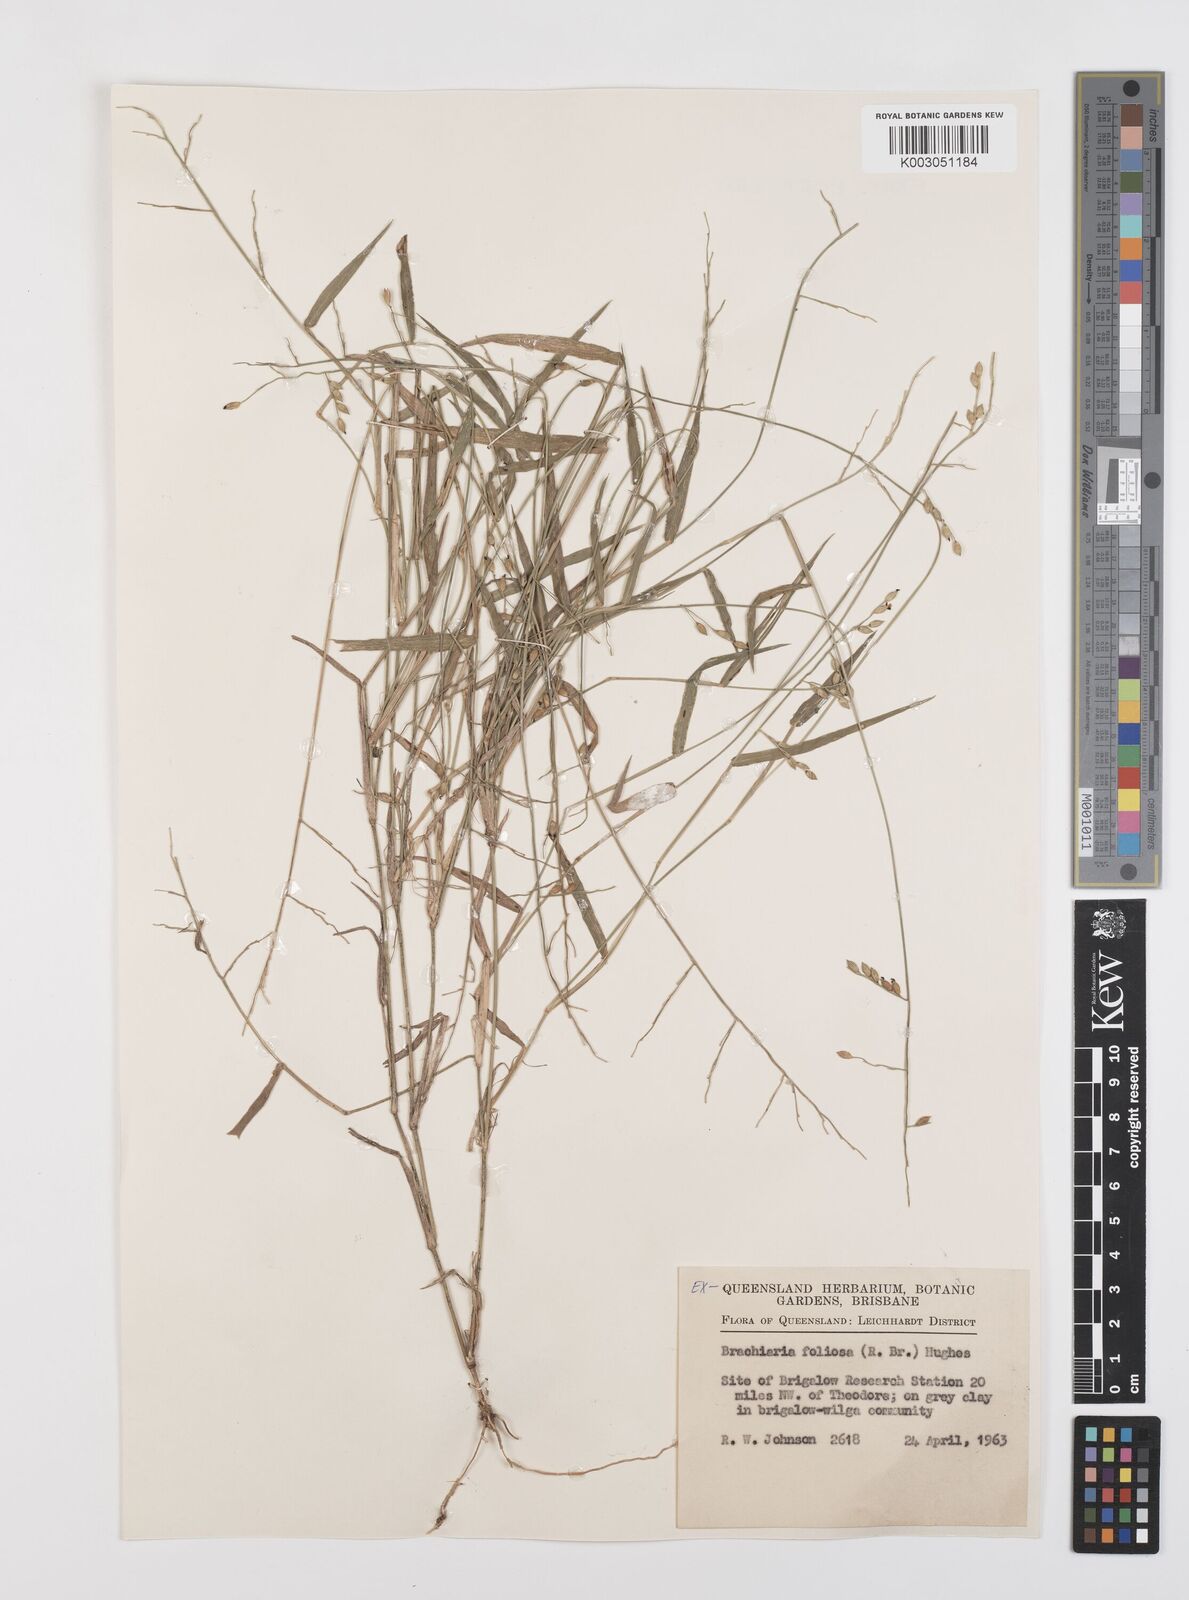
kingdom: Plantae
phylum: Tracheophyta
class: Liliopsida
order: Poales
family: Poaceae
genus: Urochloa
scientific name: Urochloa foliosa
